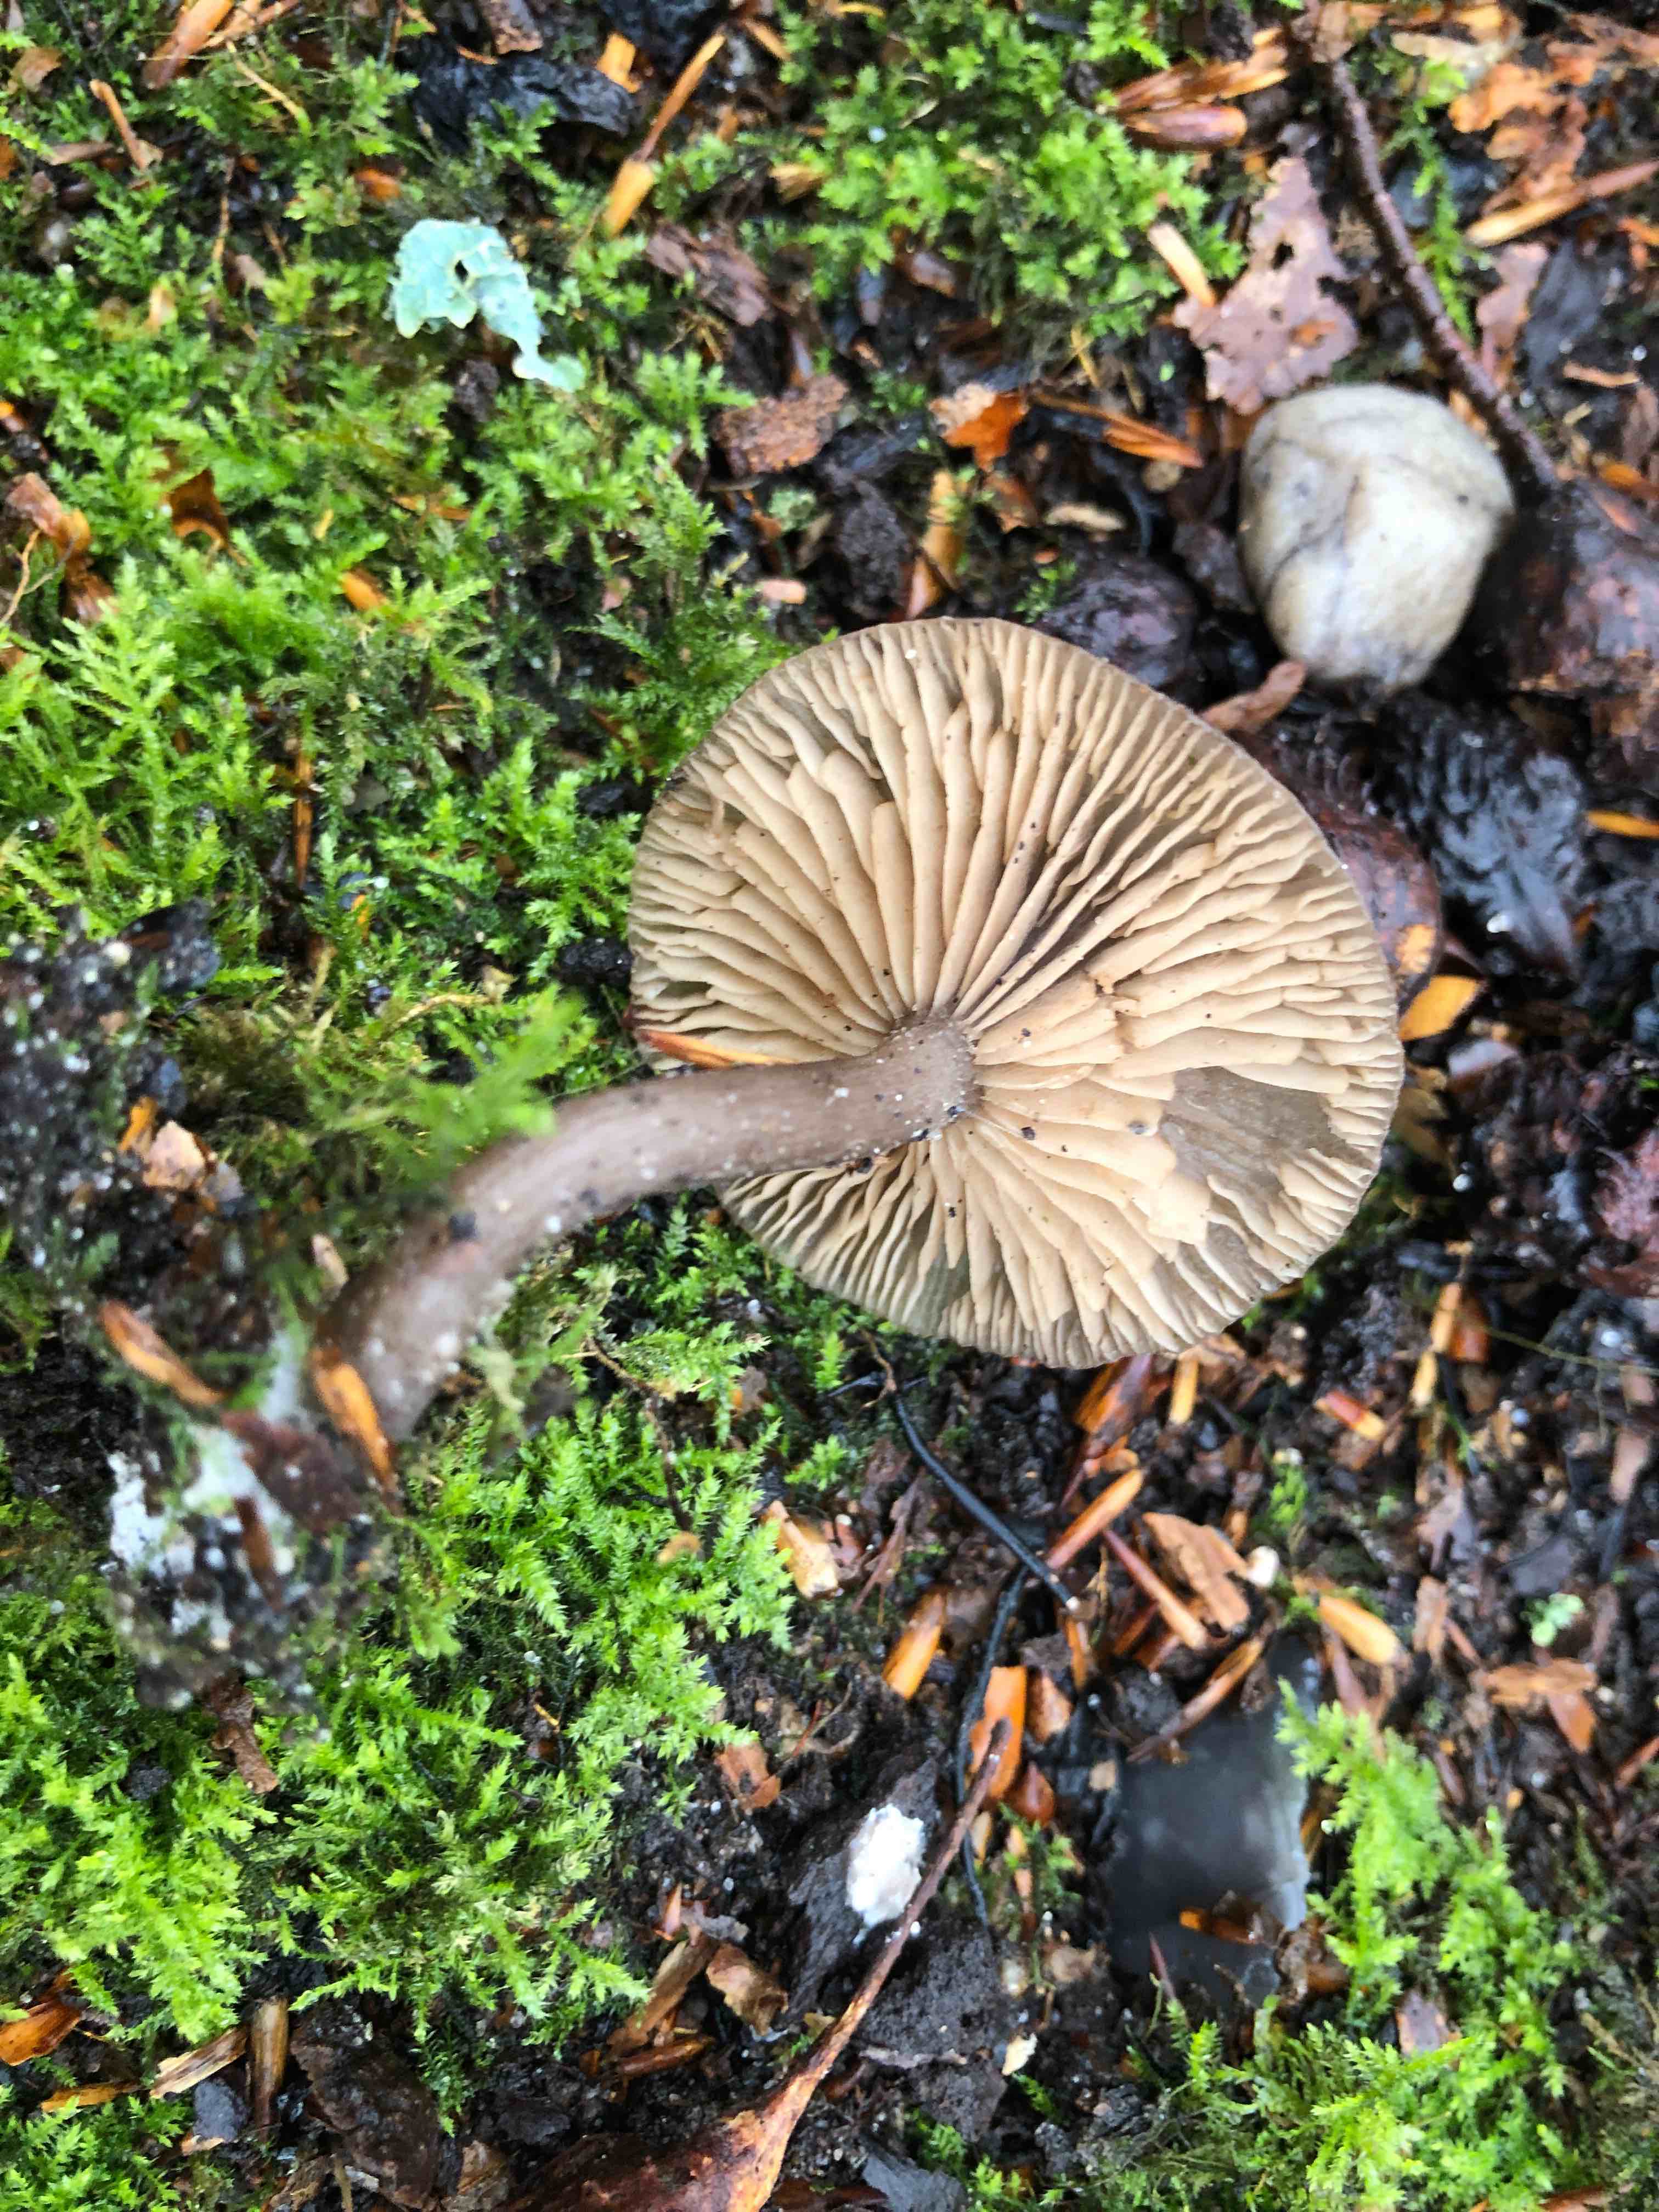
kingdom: Fungi
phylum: Basidiomycota
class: Agaricomycetes
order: Agaricales
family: Pseudoclitocybaceae
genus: Pseudoclitocybe
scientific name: Pseudoclitocybe cyathiformis
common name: almindelig bægertragthat
